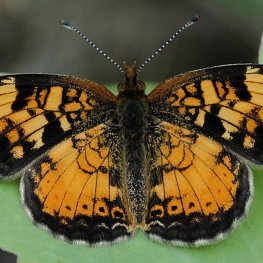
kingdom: Animalia
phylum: Arthropoda
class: Insecta
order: Lepidoptera
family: Nymphalidae
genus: Phyciodes
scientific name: Phyciodes tharos
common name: Pearl Crescent
